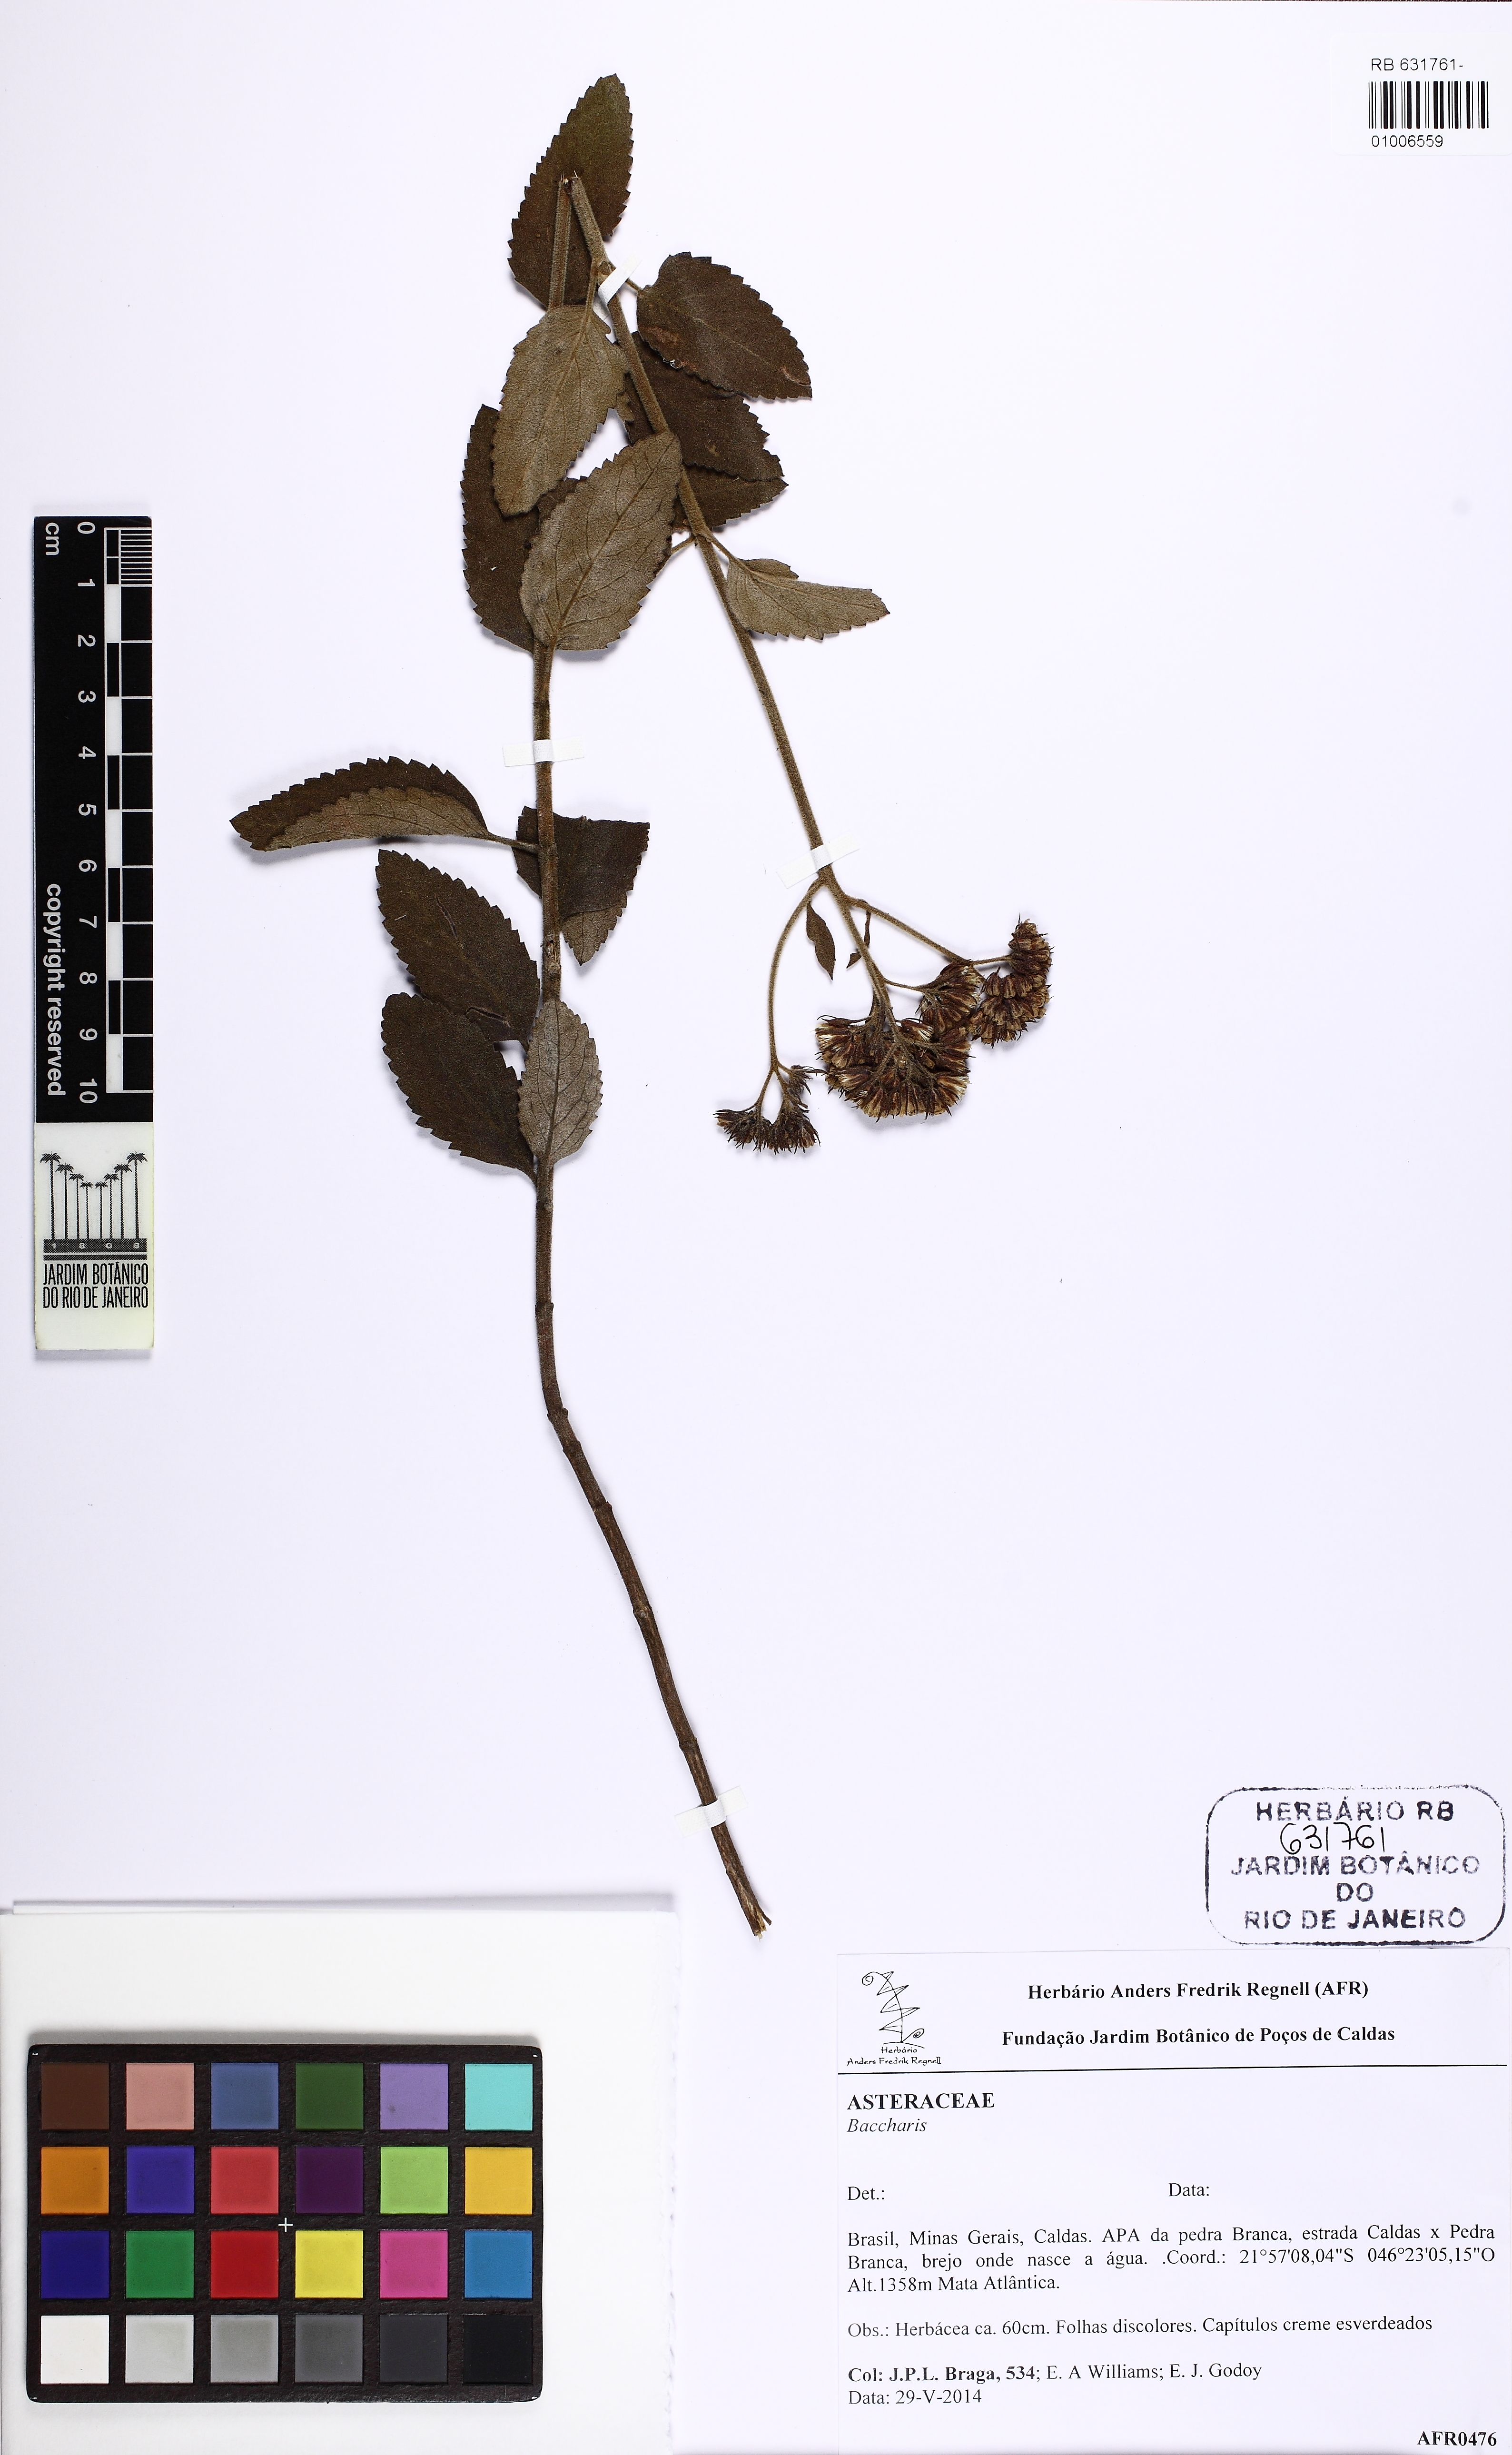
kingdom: Plantae
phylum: Tracheophyta
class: Magnoliopsida
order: Asterales
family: Asteraceae
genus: Eupatorium
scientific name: Eupatorium
